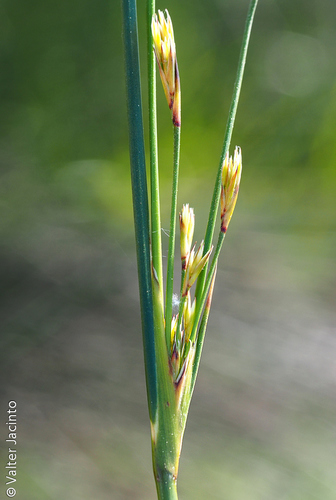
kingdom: Plantae
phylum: Tracheophyta
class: Liliopsida
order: Poales
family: Juncaceae
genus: Juncus
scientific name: Juncus subulatus
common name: Somerset rush
